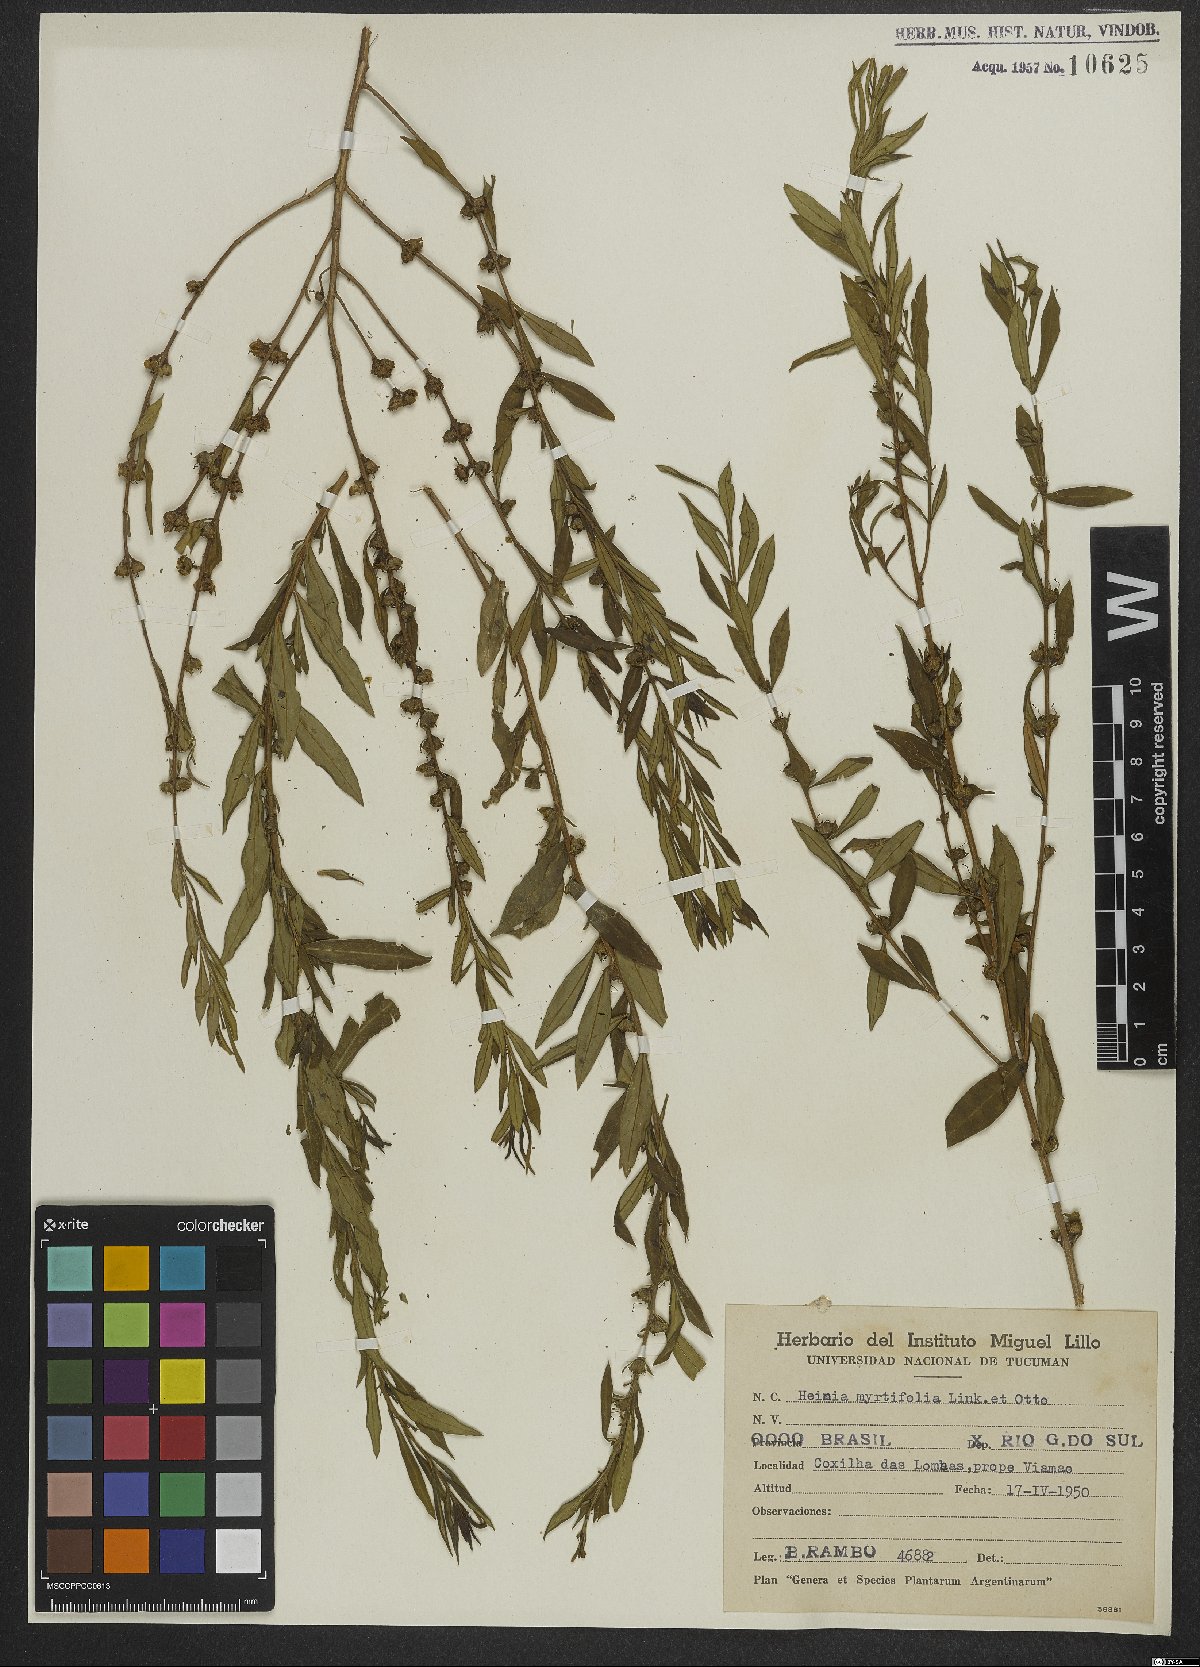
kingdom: Plantae
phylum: Tracheophyta
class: Magnoliopsida
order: Myrtales
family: Lythraceae
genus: Heimia
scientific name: Heimia apetala
